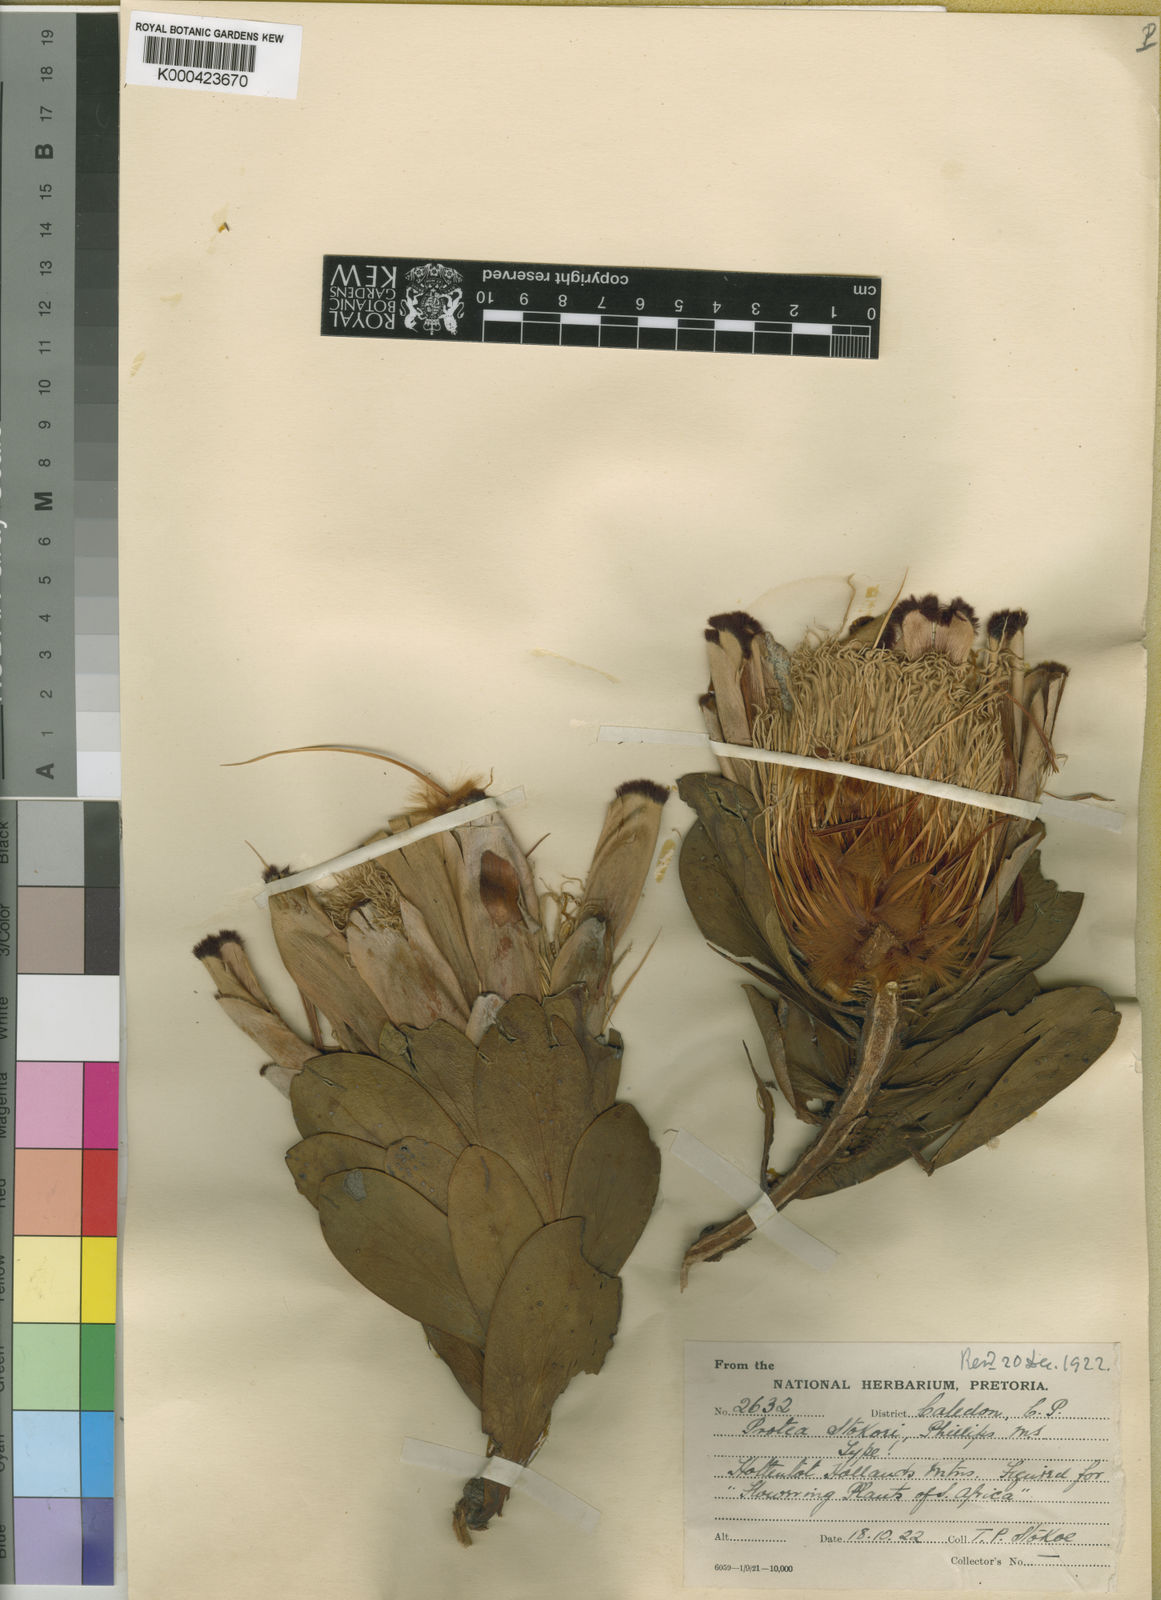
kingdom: Plantae
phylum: Tracheophyta
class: Magnoliopsida
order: Proteales
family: Proteaceae
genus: Protea
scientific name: Protea stokoei
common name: Pink sugarbush
